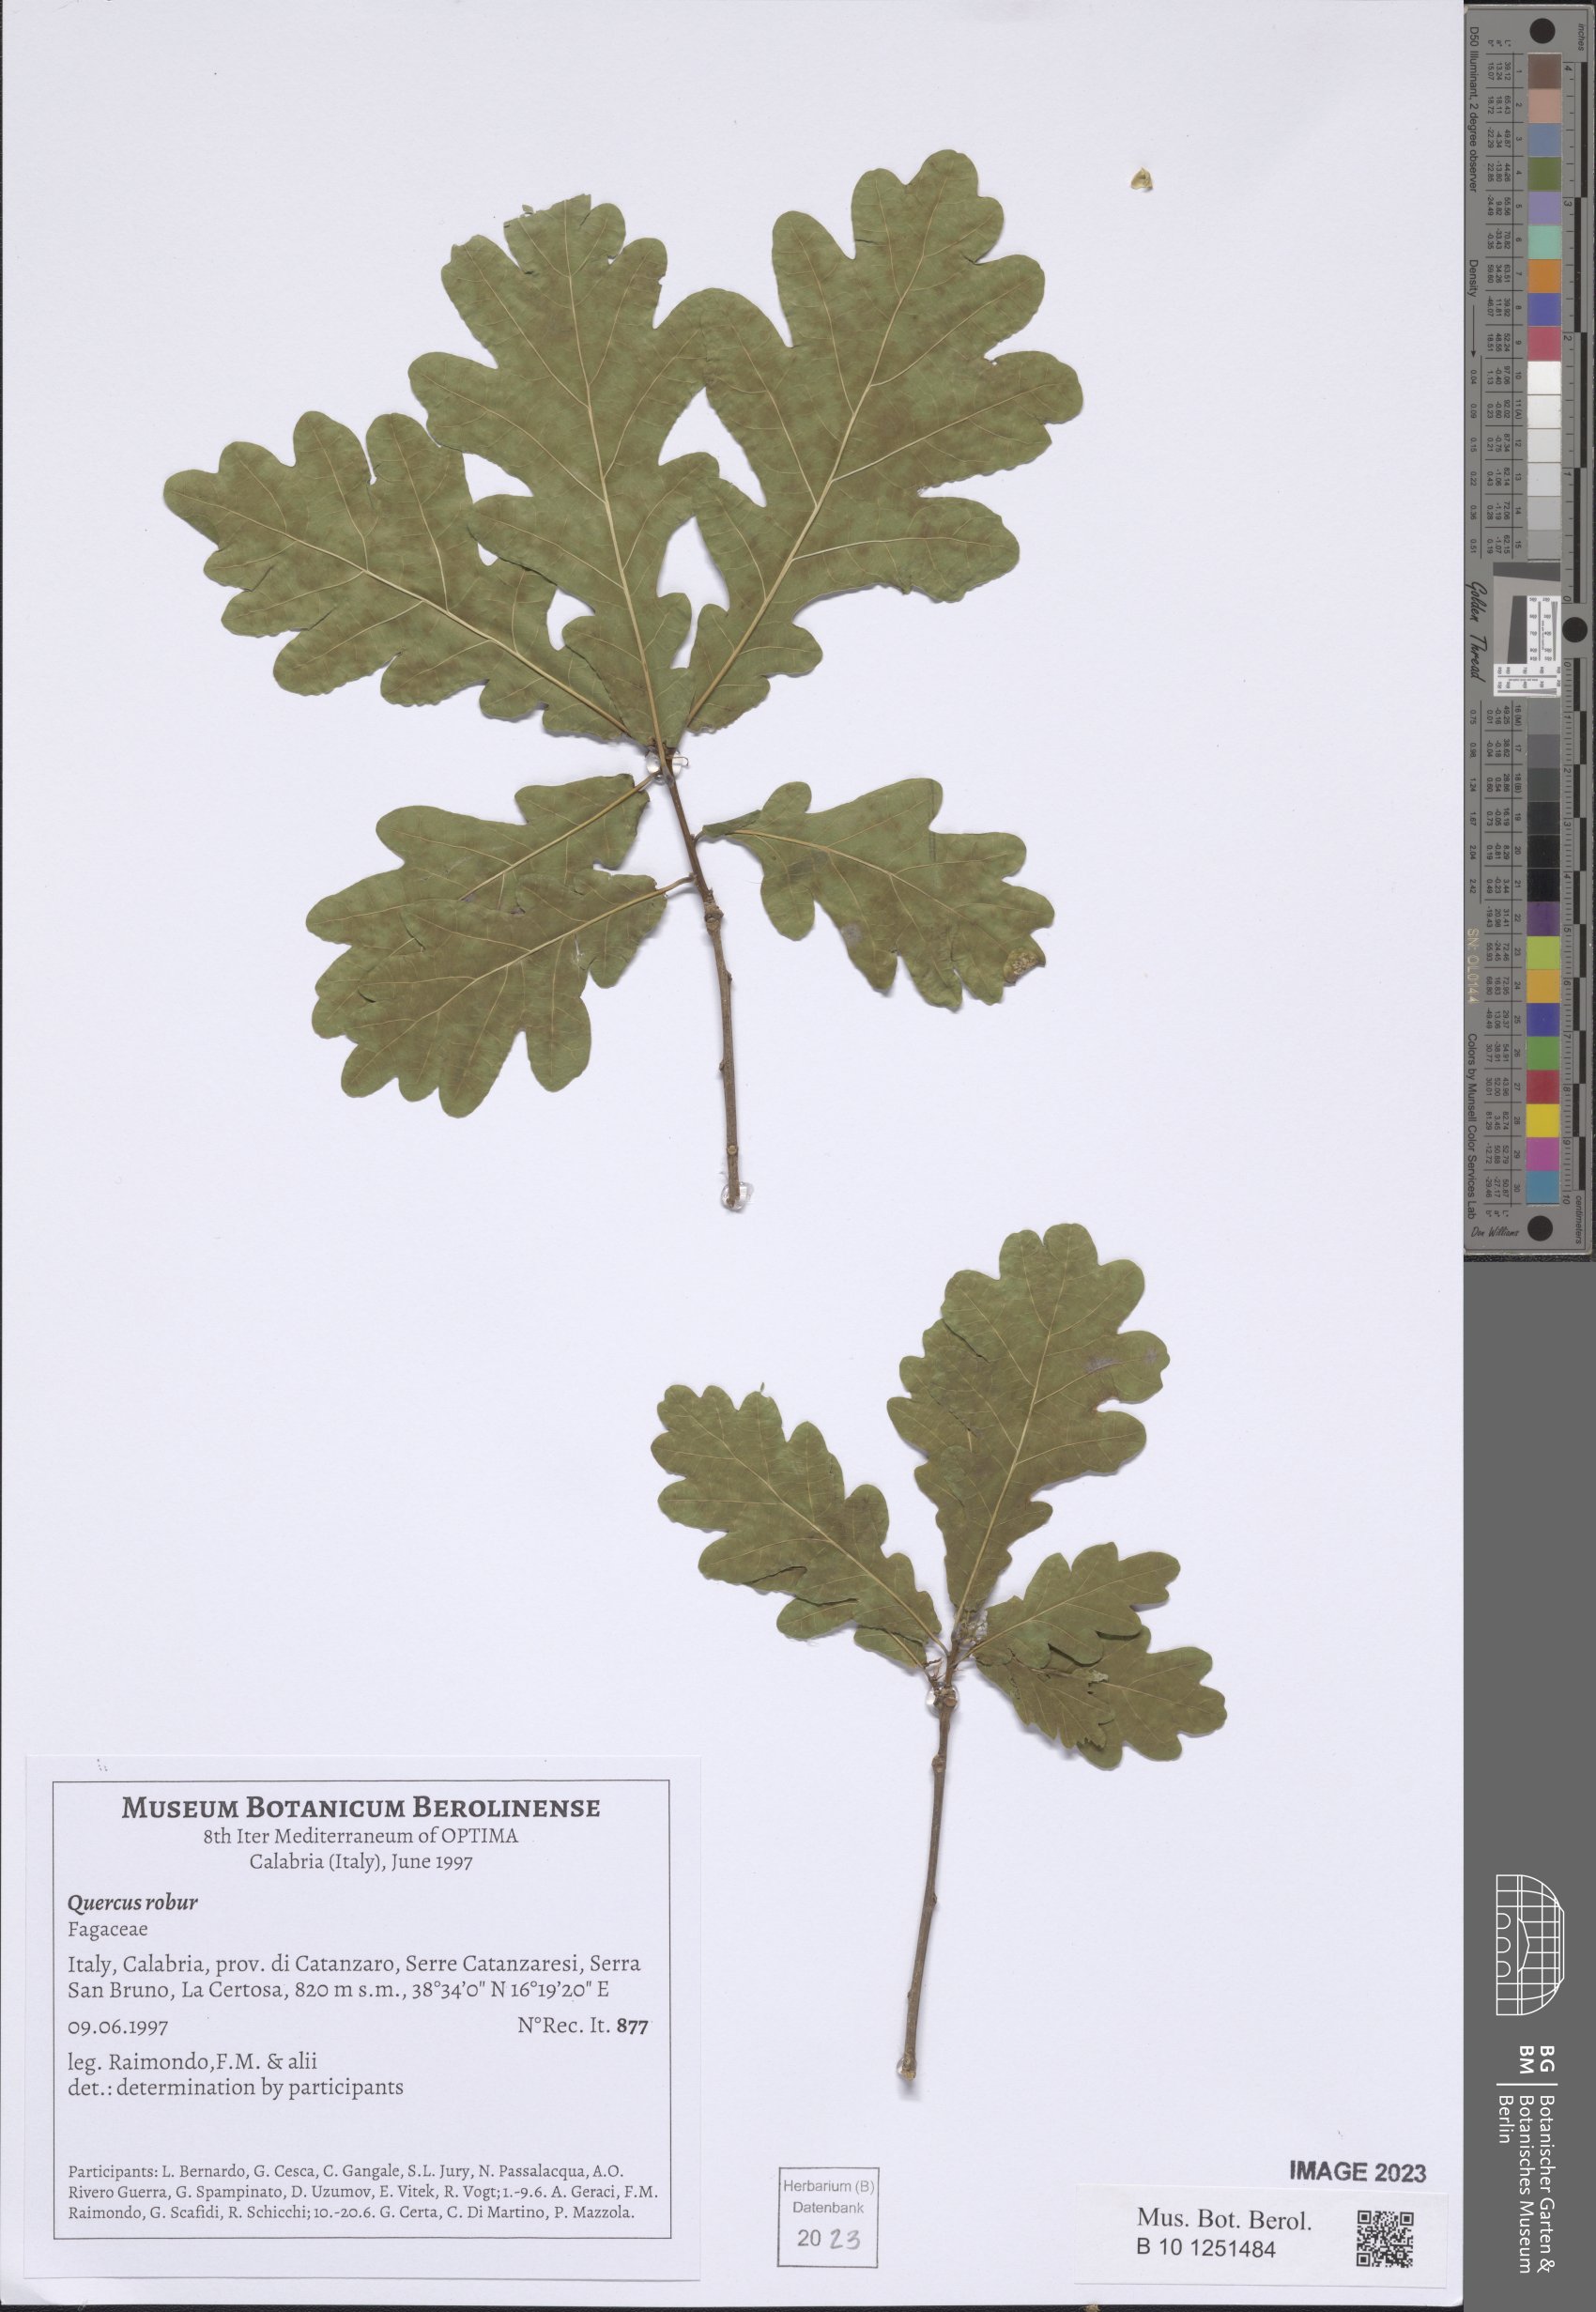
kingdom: Plantae
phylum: Tracheophyta
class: Magnoliopsida
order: Fagales
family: Fagaceae
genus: Quercus
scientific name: Quercus robur
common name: Pedunculate oak
